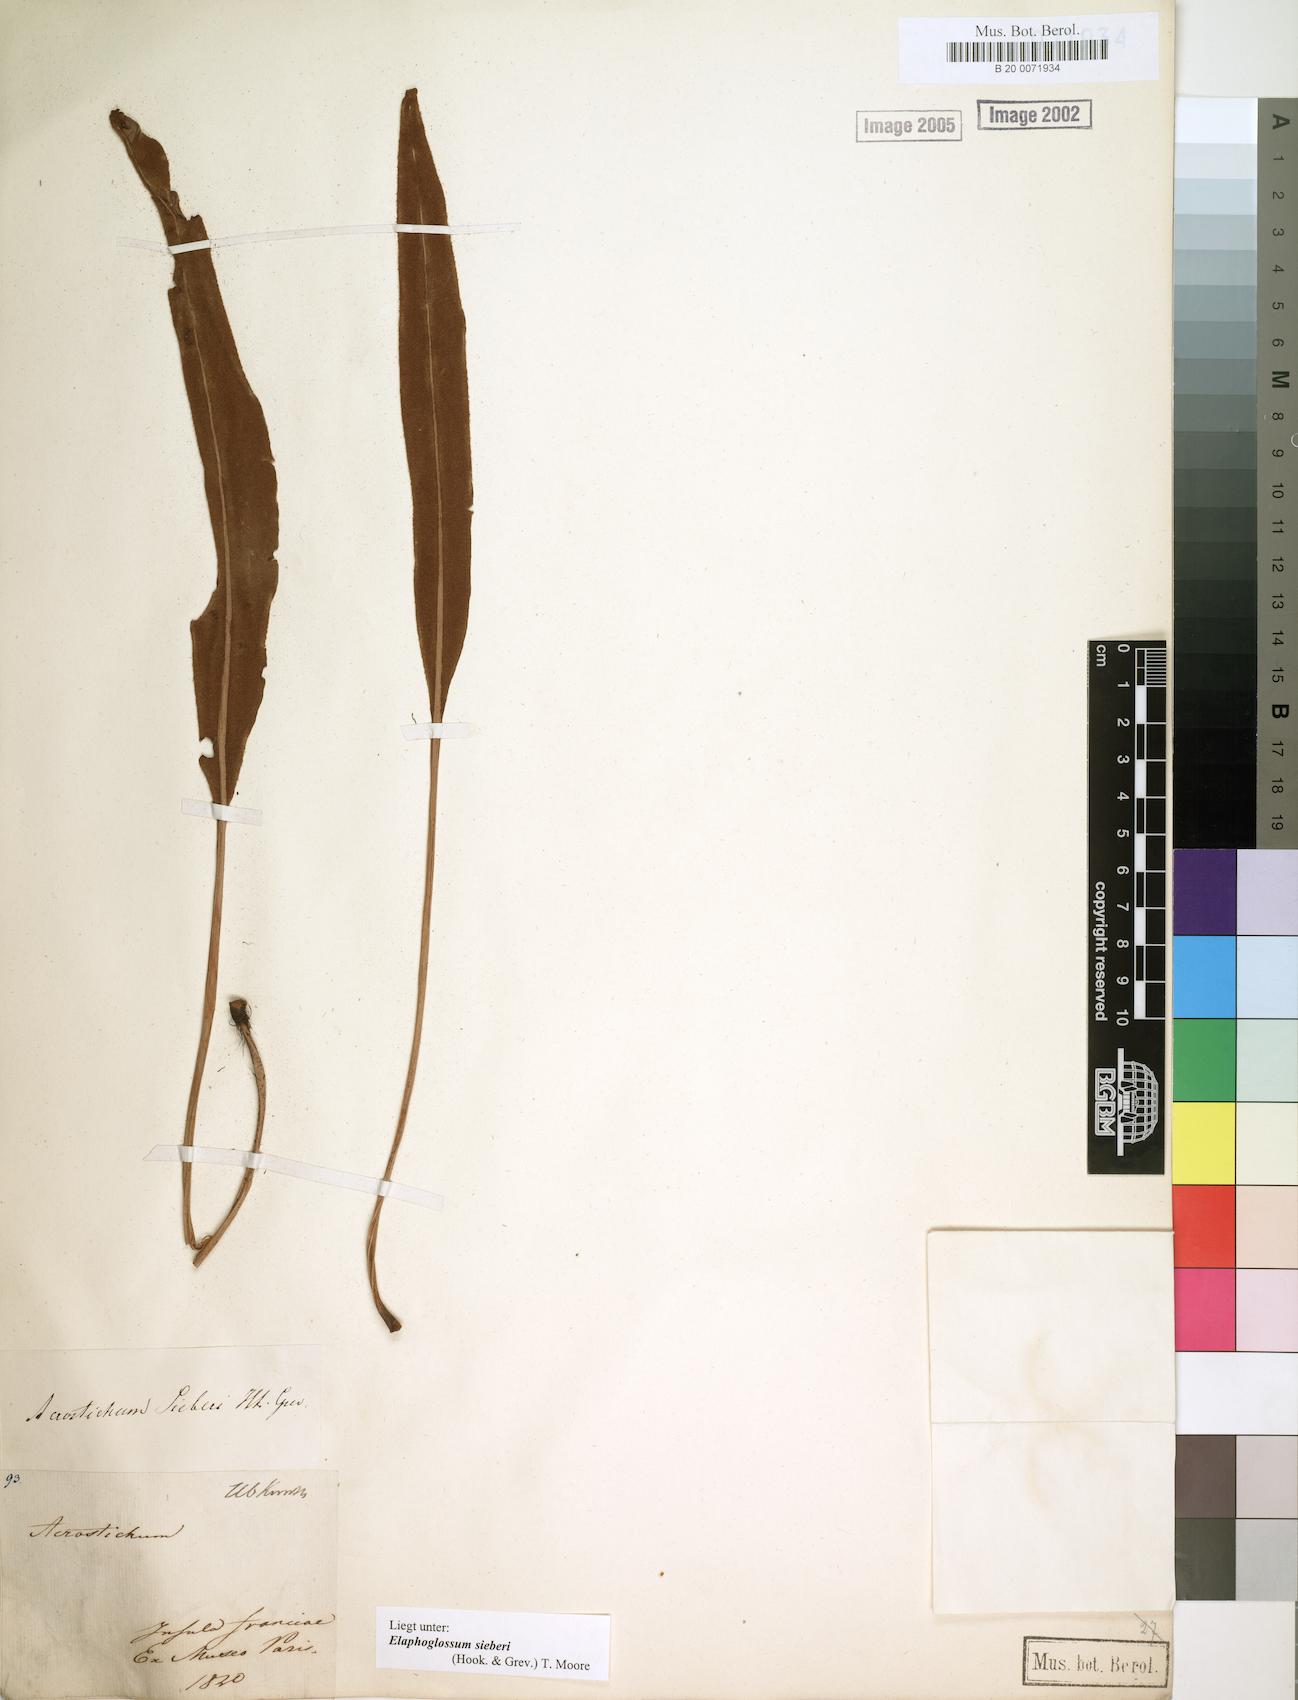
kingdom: Plantae
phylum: Tracheophyta
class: Polypodiopsida
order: Polypodiales
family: Dryopteridaceae
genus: Elaphoglossum
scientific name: Elaphoglossum sieberi
